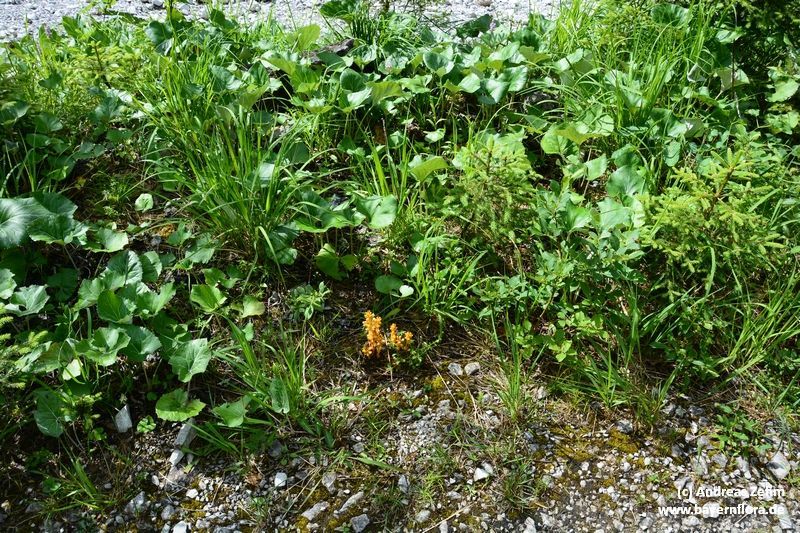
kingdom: Plantae
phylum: Tracheophyta
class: Magnoliopsida
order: Lamiales
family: Orobanchaceae
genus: Orobanche
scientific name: Orobanche flava
